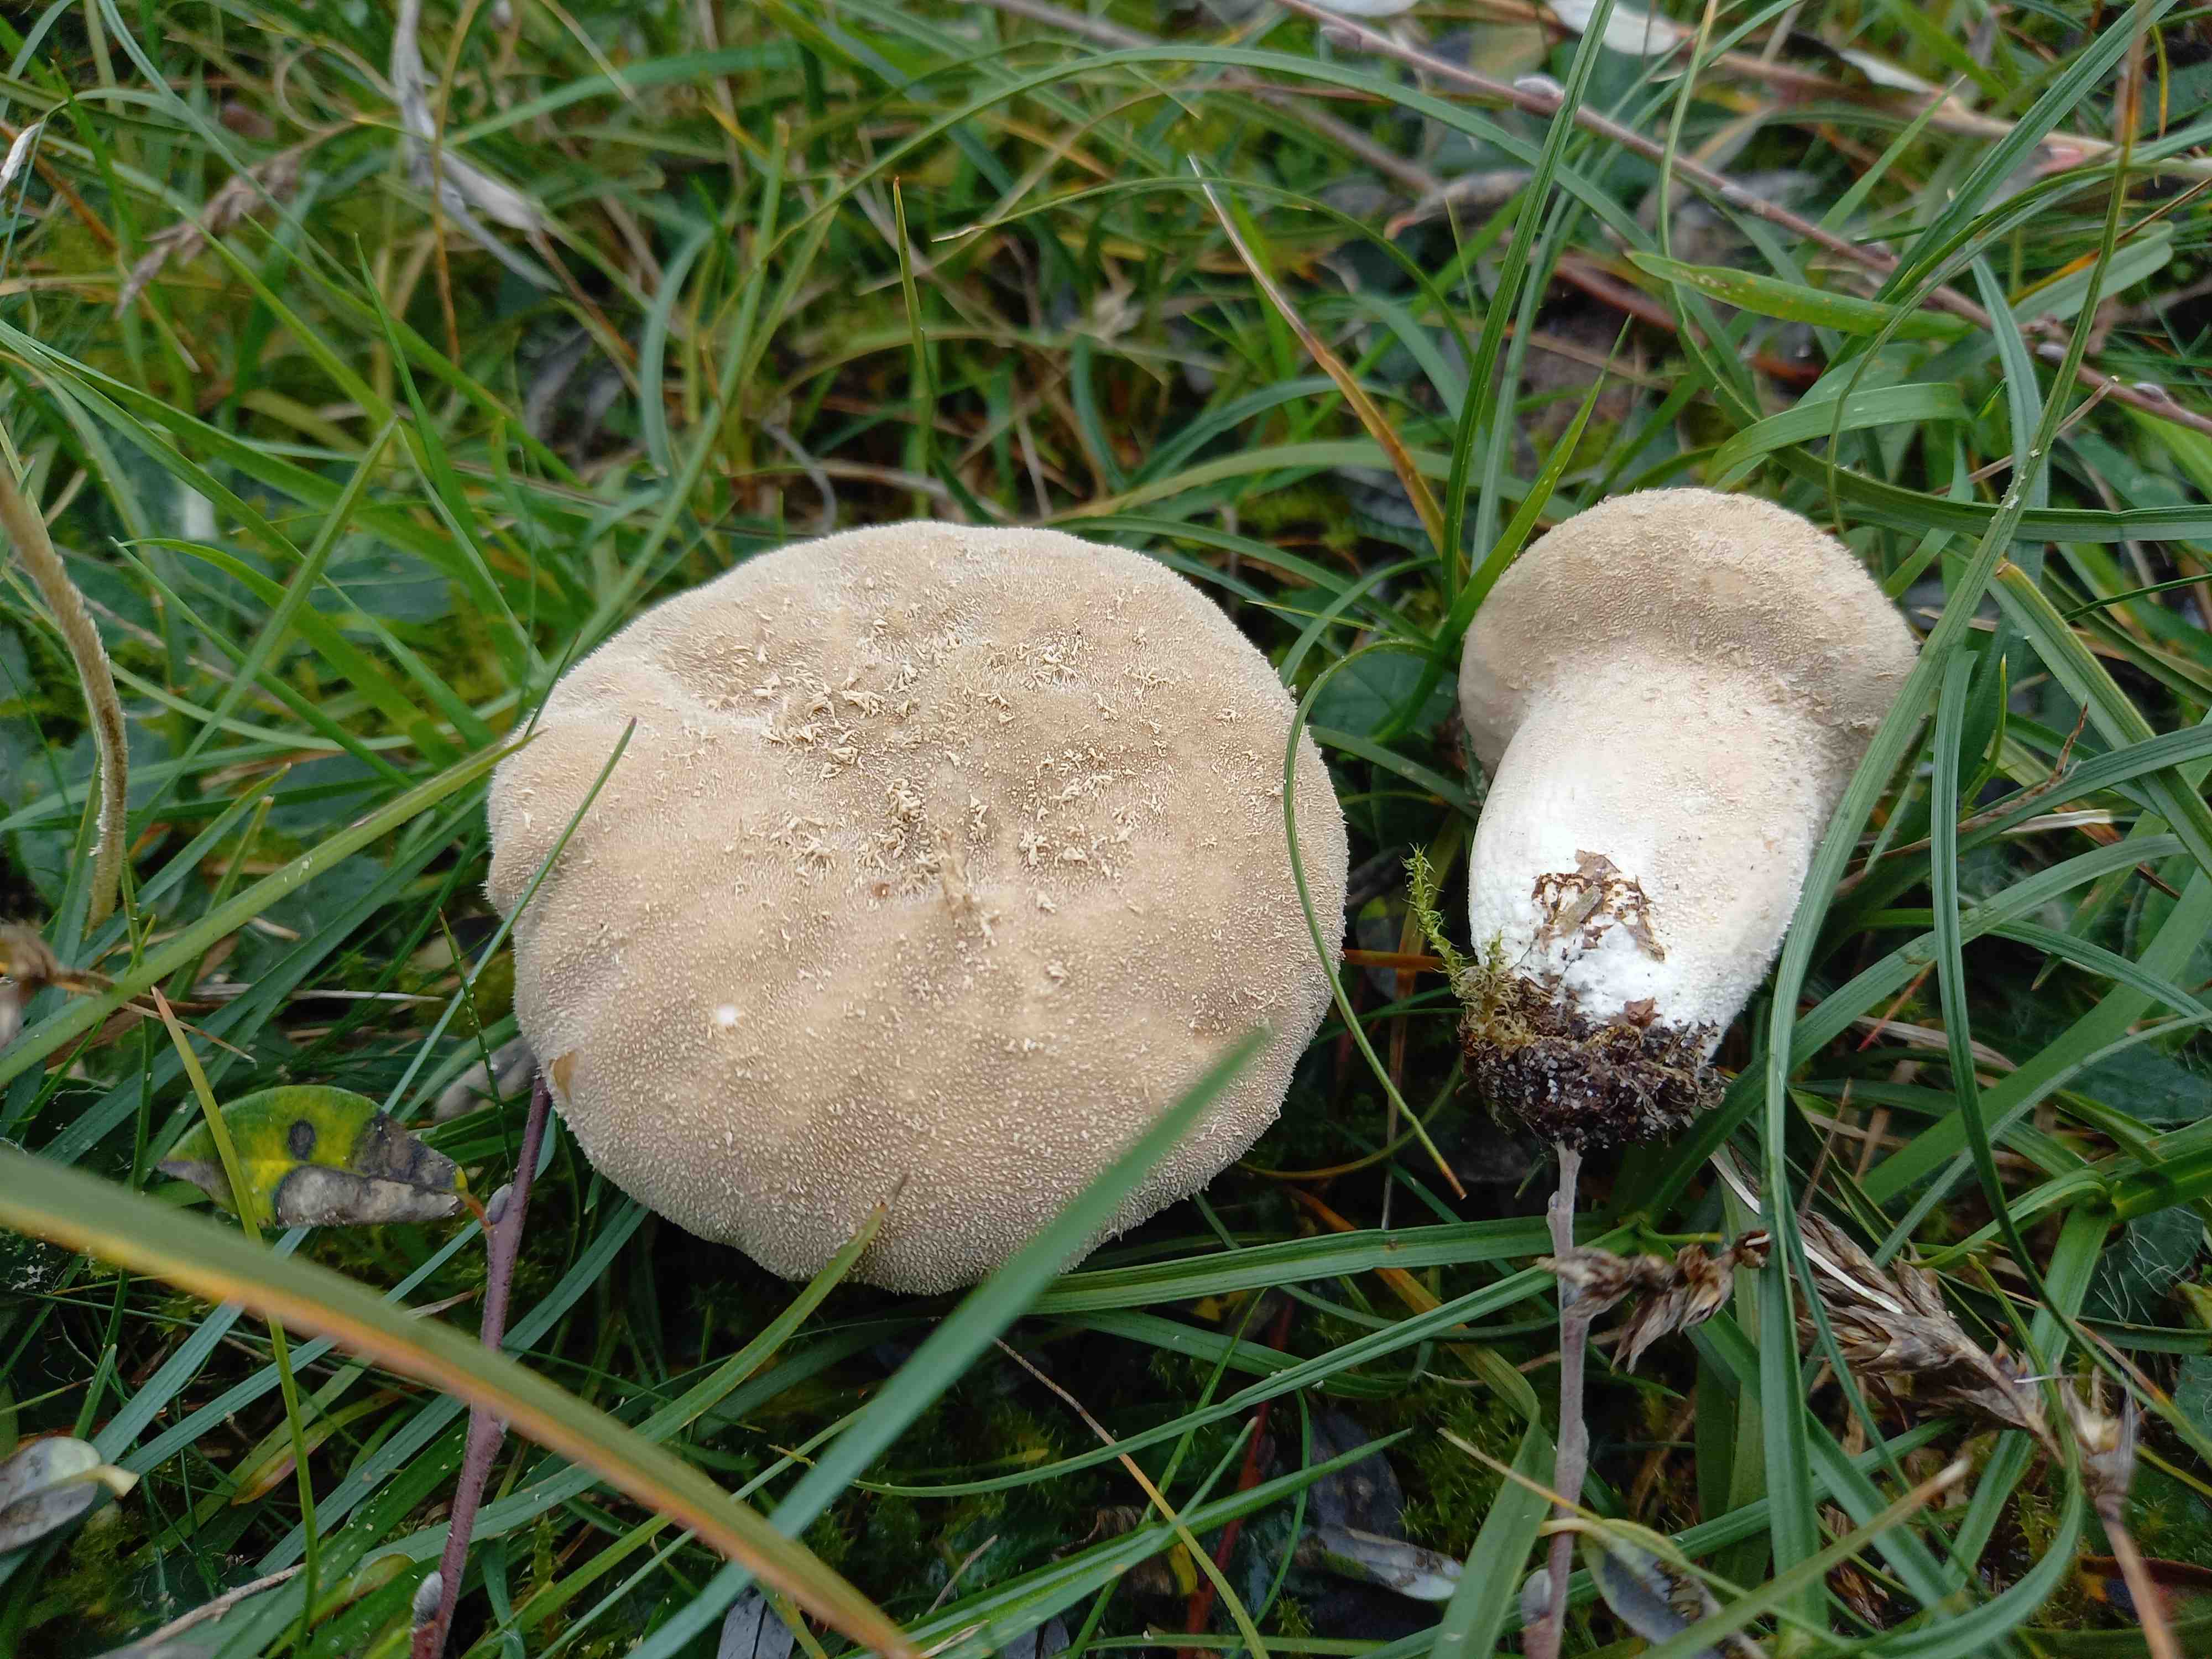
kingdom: Fungi
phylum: Basidiomycota
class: Agaricomycetes
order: Agaricales
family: Lycoperdaceae
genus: Lycoperdon
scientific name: Lycoperdon excipuliforme
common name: højstokket støvbold
